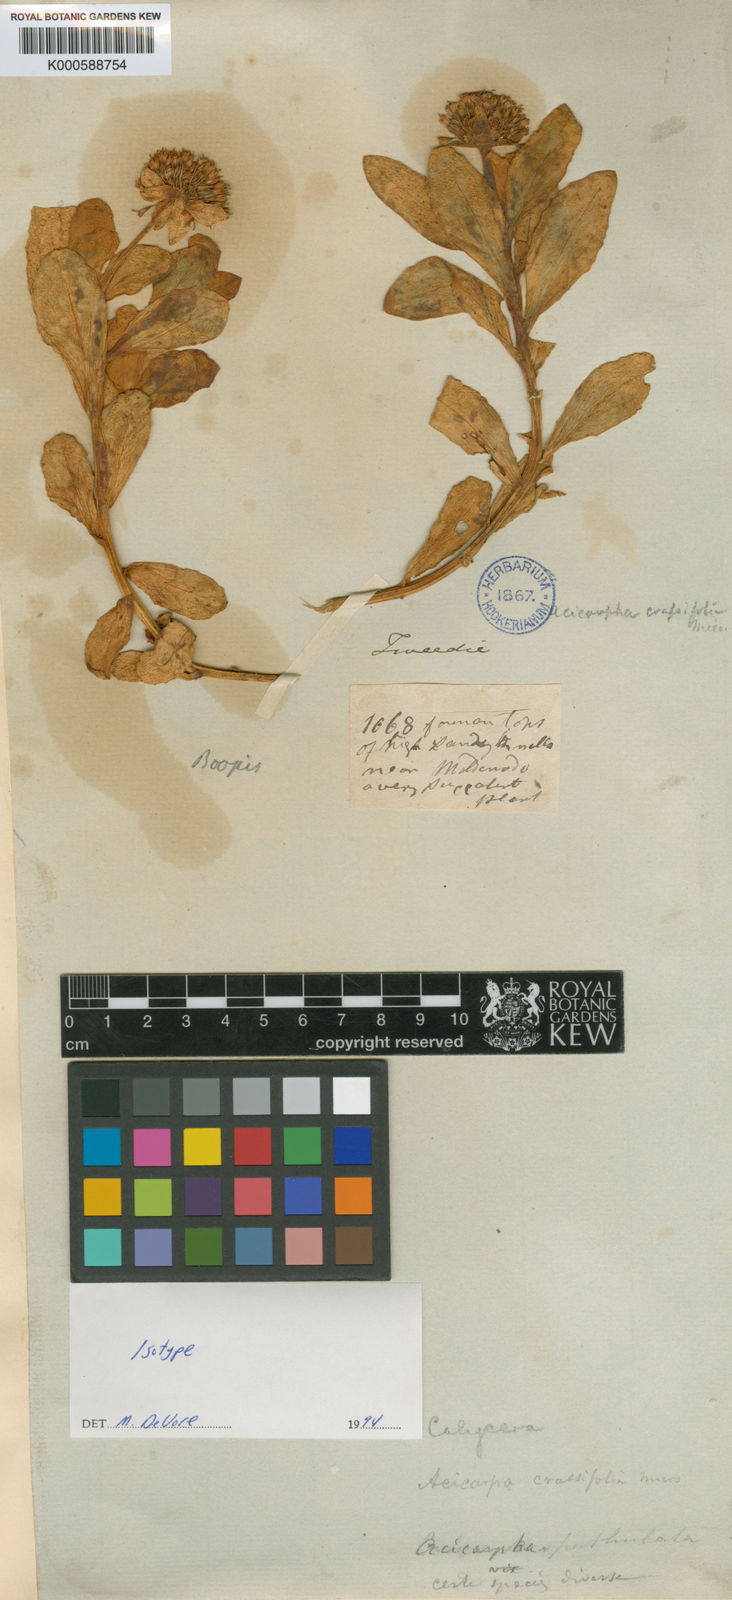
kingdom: Plantae
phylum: Tracheophyta
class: Magnoliopsida
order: Asterales
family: Calyceraceae
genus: Calycera
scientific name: Calycera crassifolia
